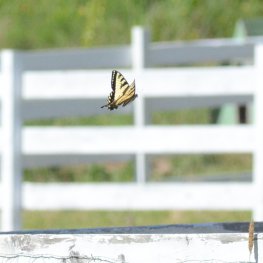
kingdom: Animalia
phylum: Arthropoda
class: Insecta
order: Lepidoptera
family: Papilionidae
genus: Pterourus
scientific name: Pterourus canadensis
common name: Canadian Tiger Swallowtail
